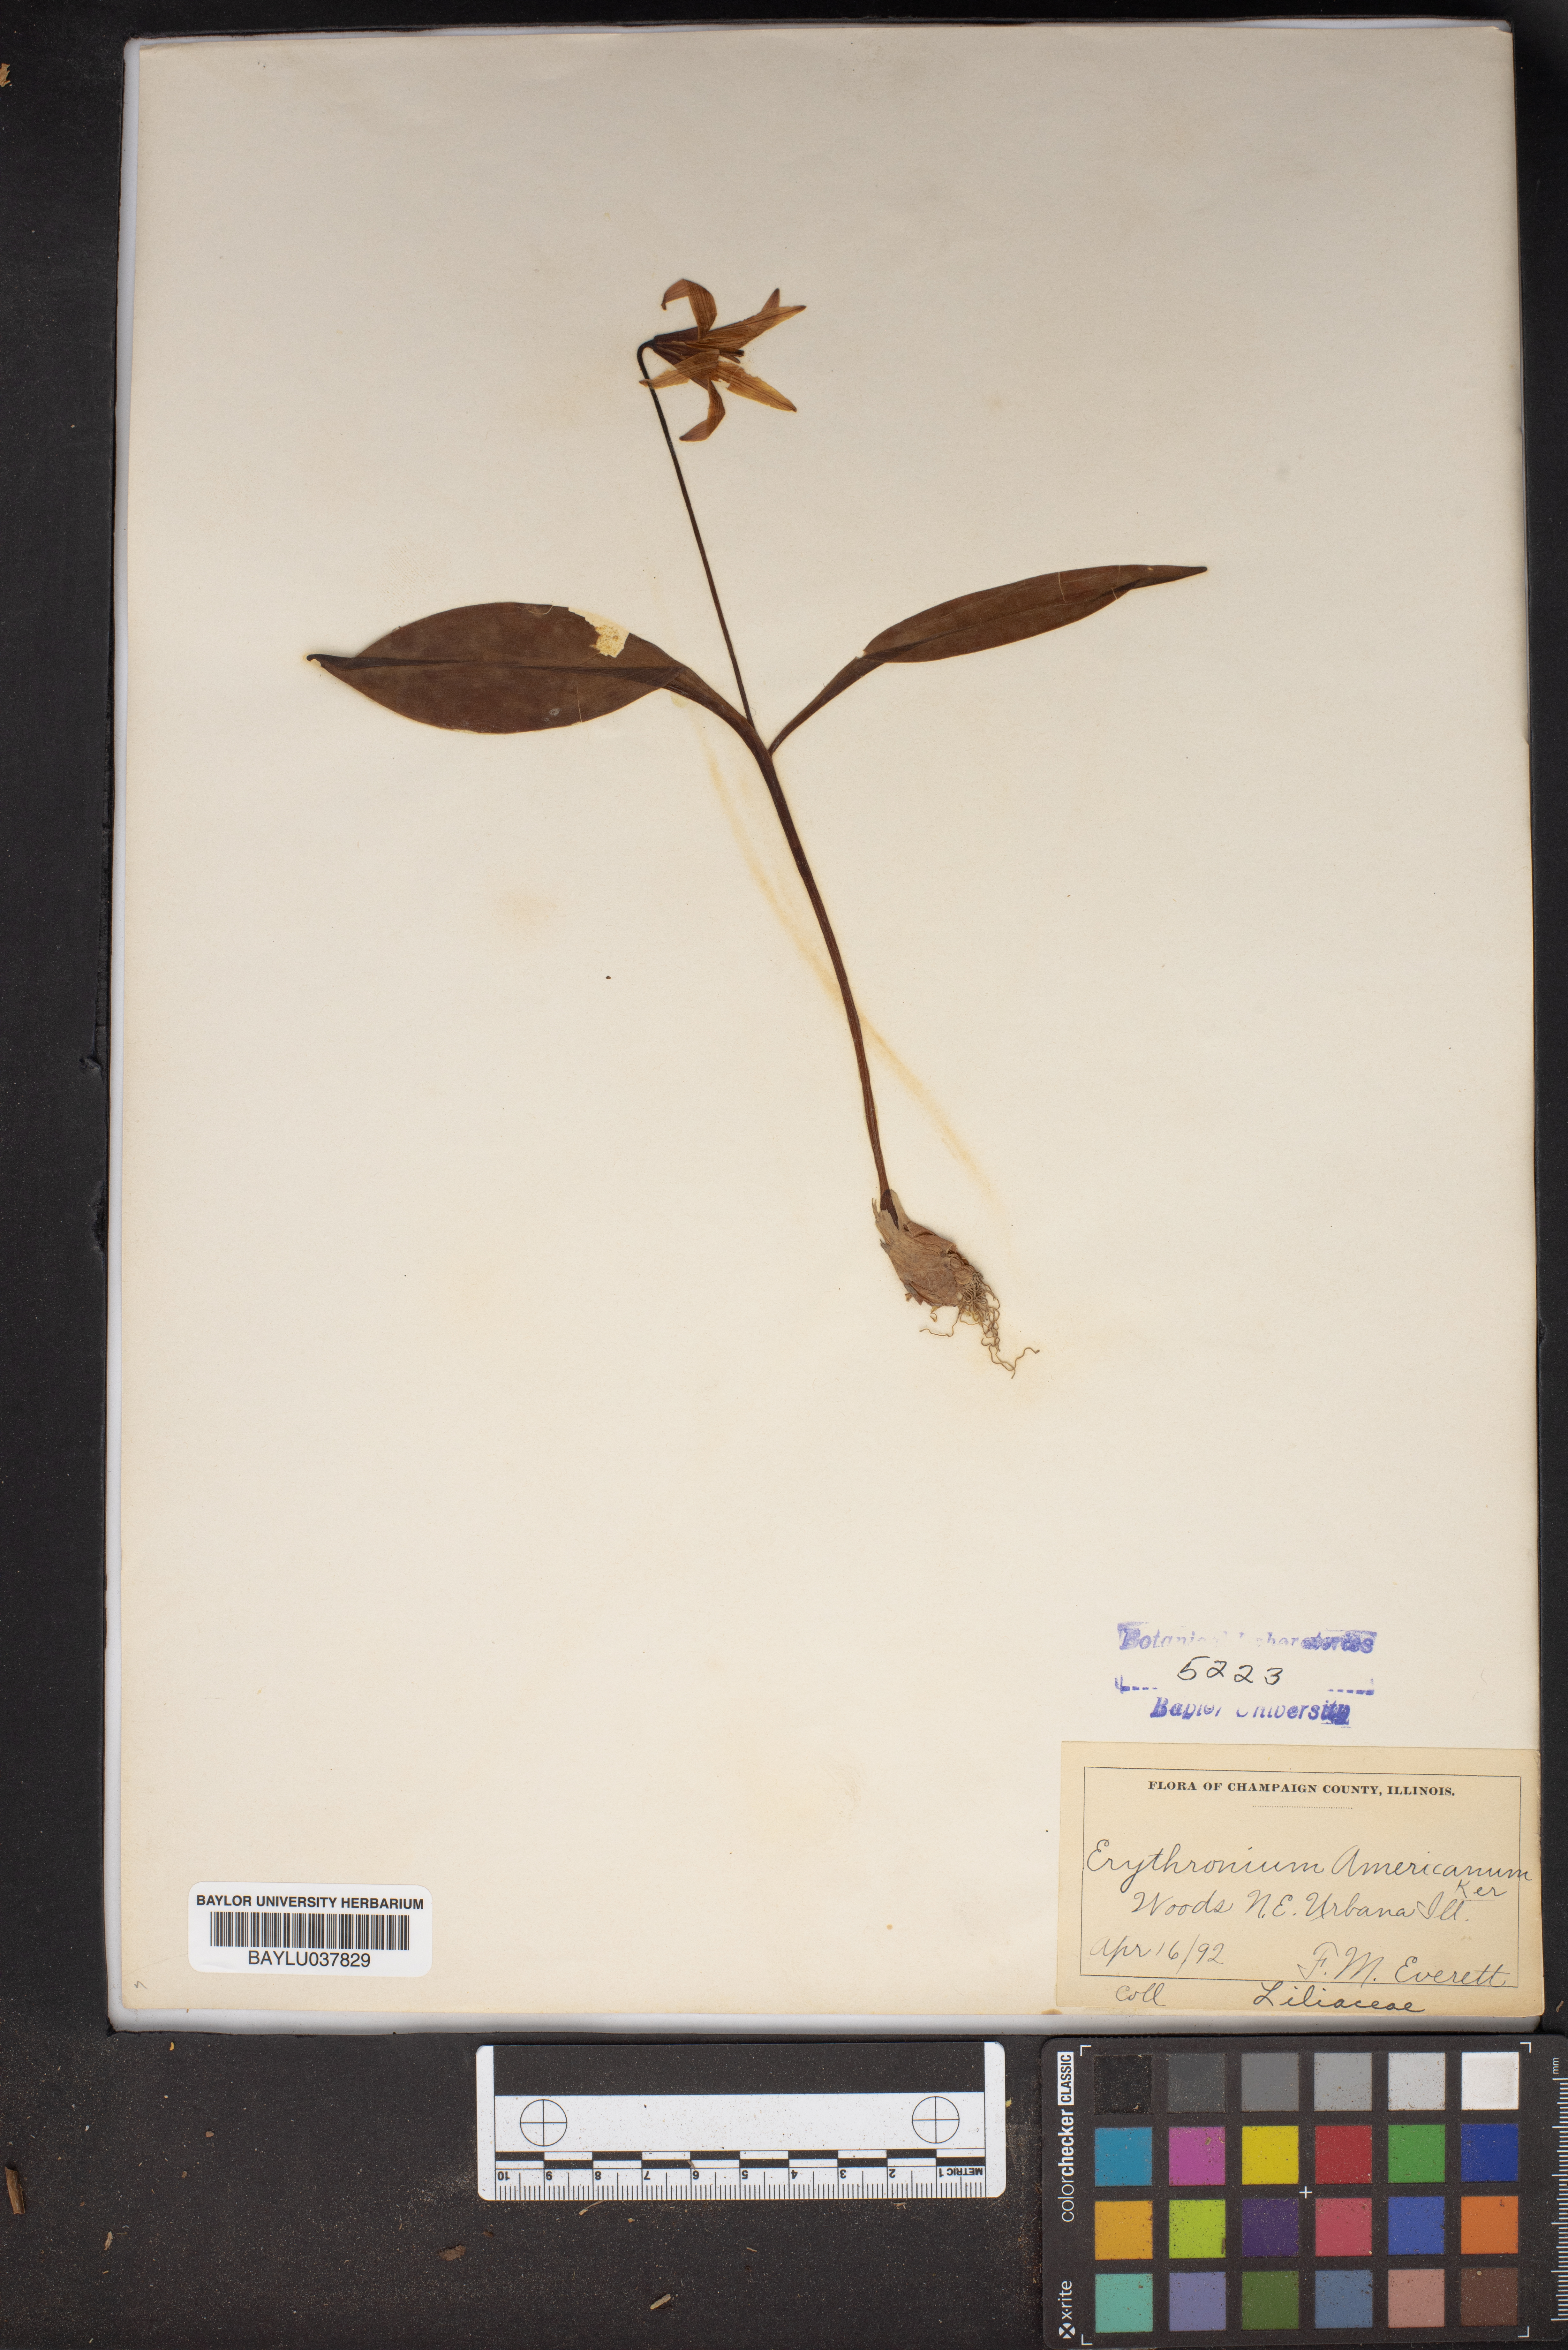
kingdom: Plantae
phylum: Tracheophyta
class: Liliopsida
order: Liliales
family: Liliaceae
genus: Erythronium
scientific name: Erythronium americanum
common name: Yellow adder's-tongue
